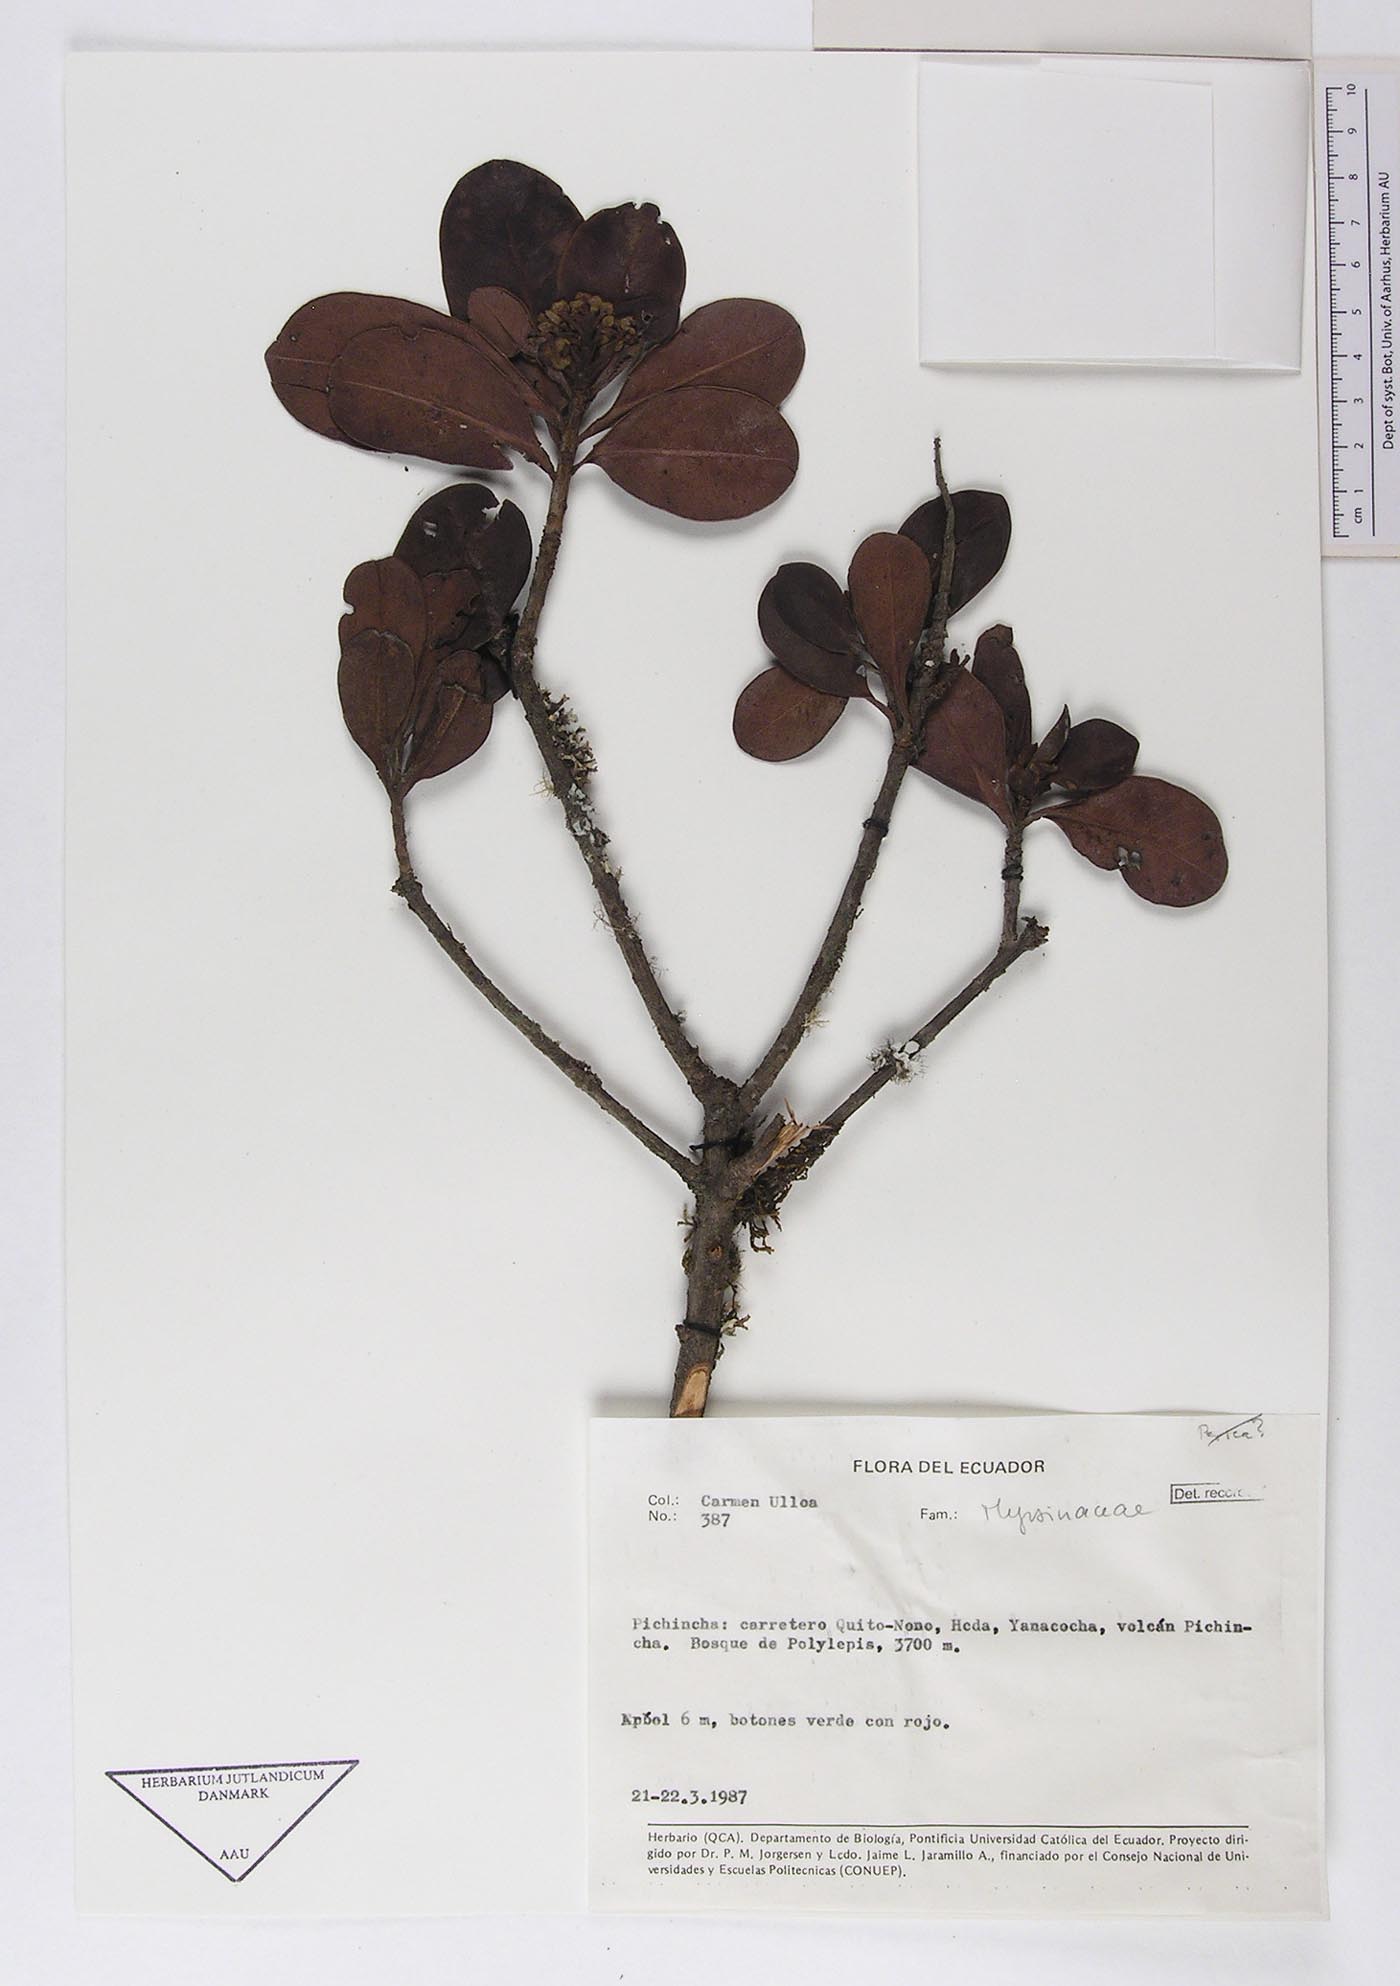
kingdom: Plantae
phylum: Tracheophyta
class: Magnoliopsida
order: Ericales
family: Primulaceae
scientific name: Primulaceae
